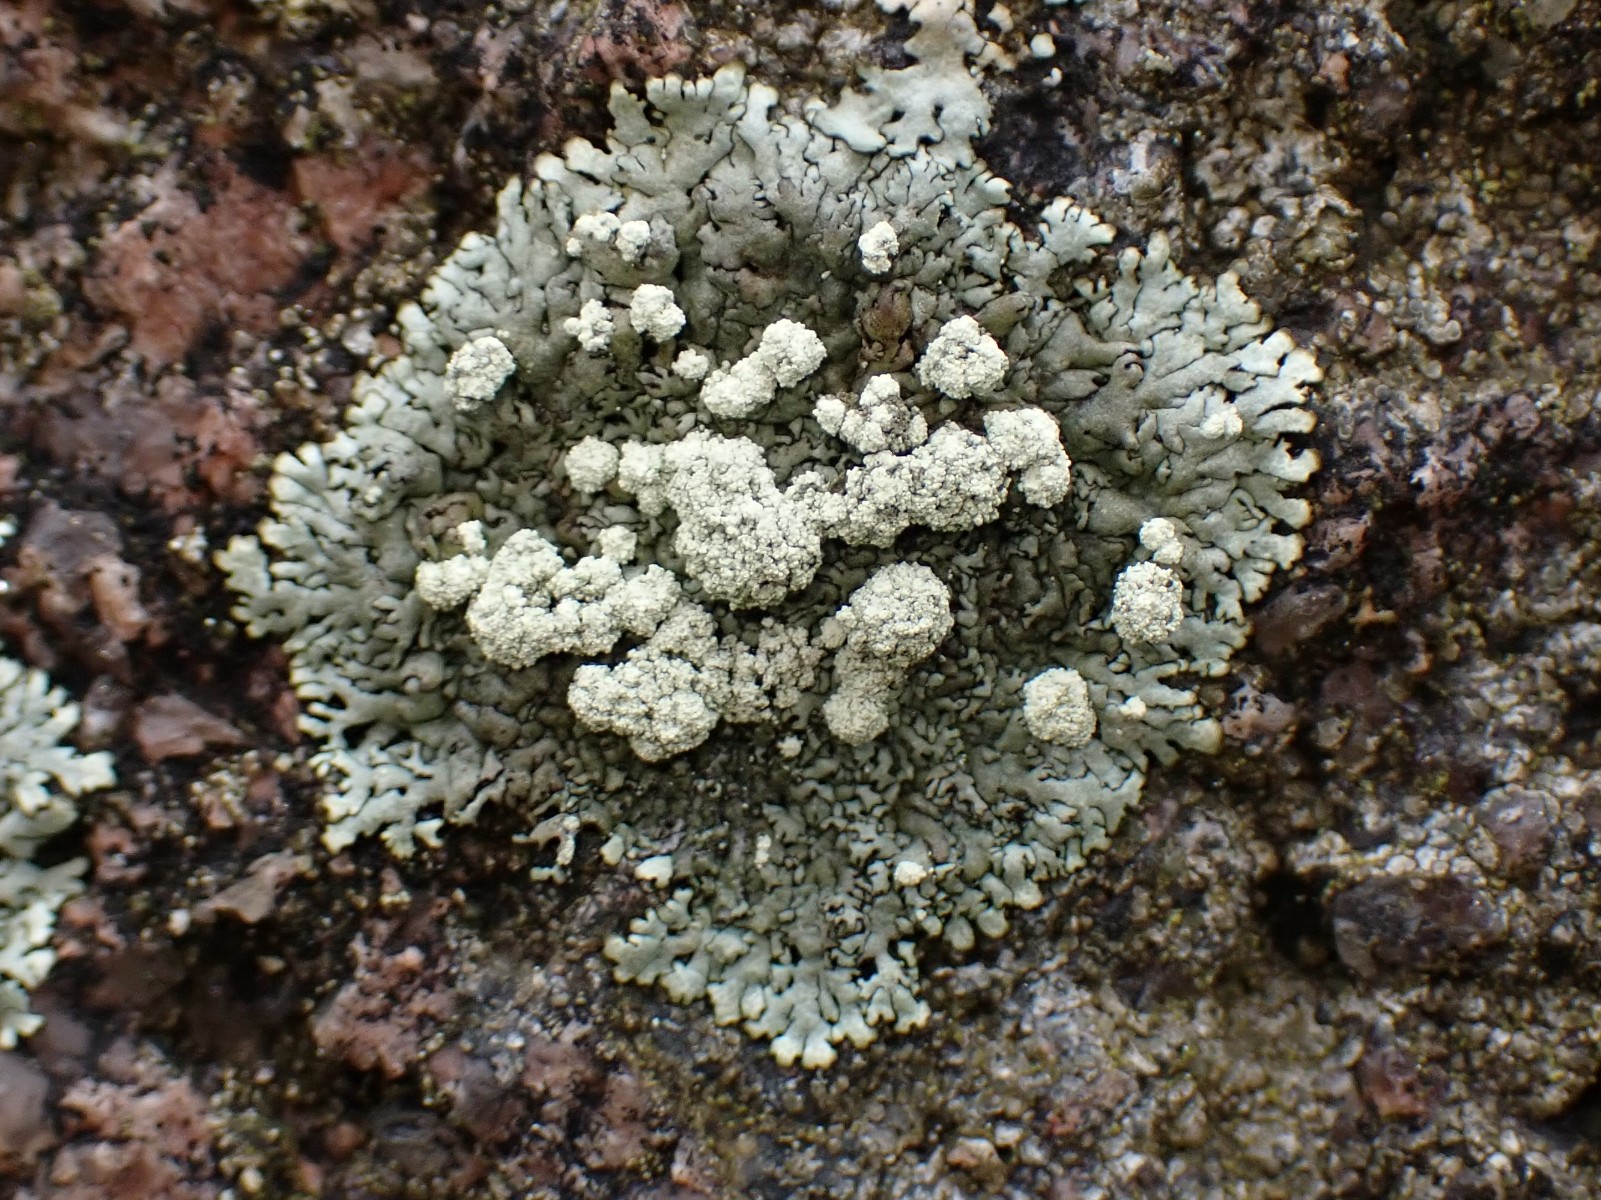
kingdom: Fungi
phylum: Ascomycota
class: Lecanoromycetes
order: Lecanorales
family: Parmeliaceae
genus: Xanthoparmelia
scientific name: Xanthoparmelia mougeotii
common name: liden skållav
